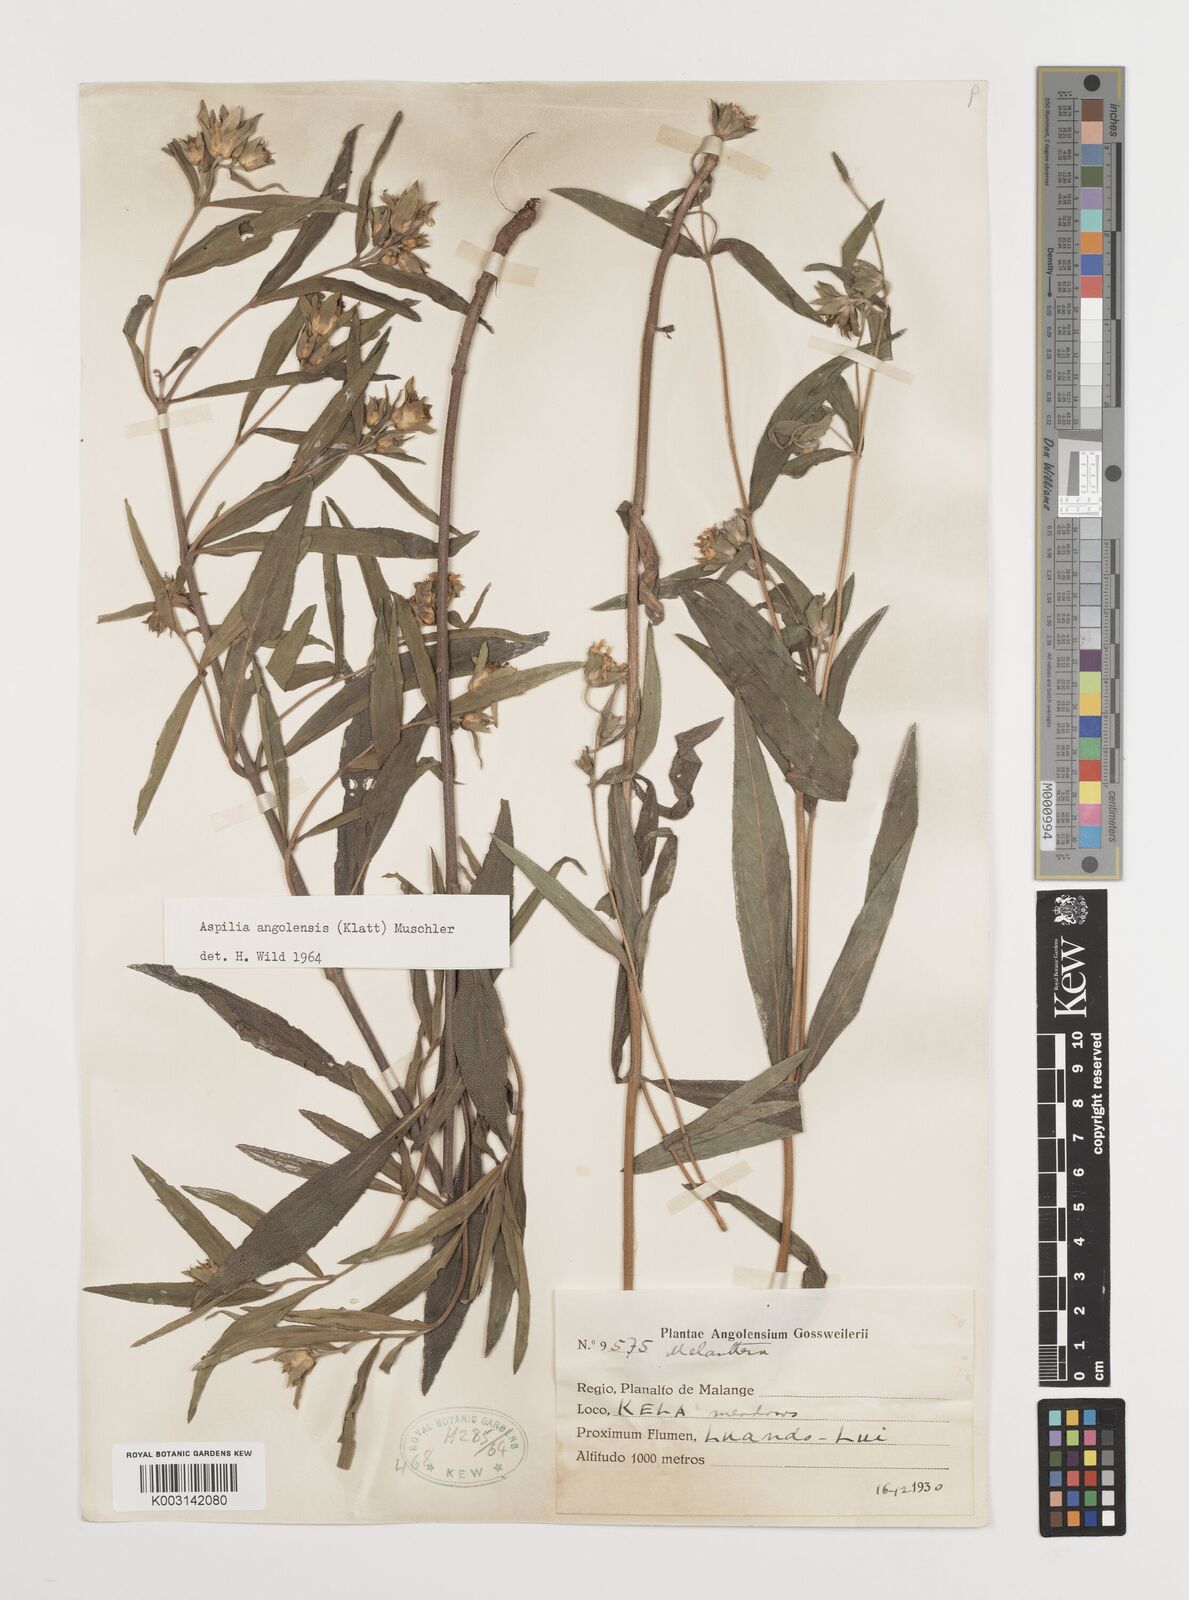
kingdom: Plantae
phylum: Tracheophyta
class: Magnoliopsida
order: Asterales
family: Asteraceae
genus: Aspilia
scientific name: Aspilia angolensis
